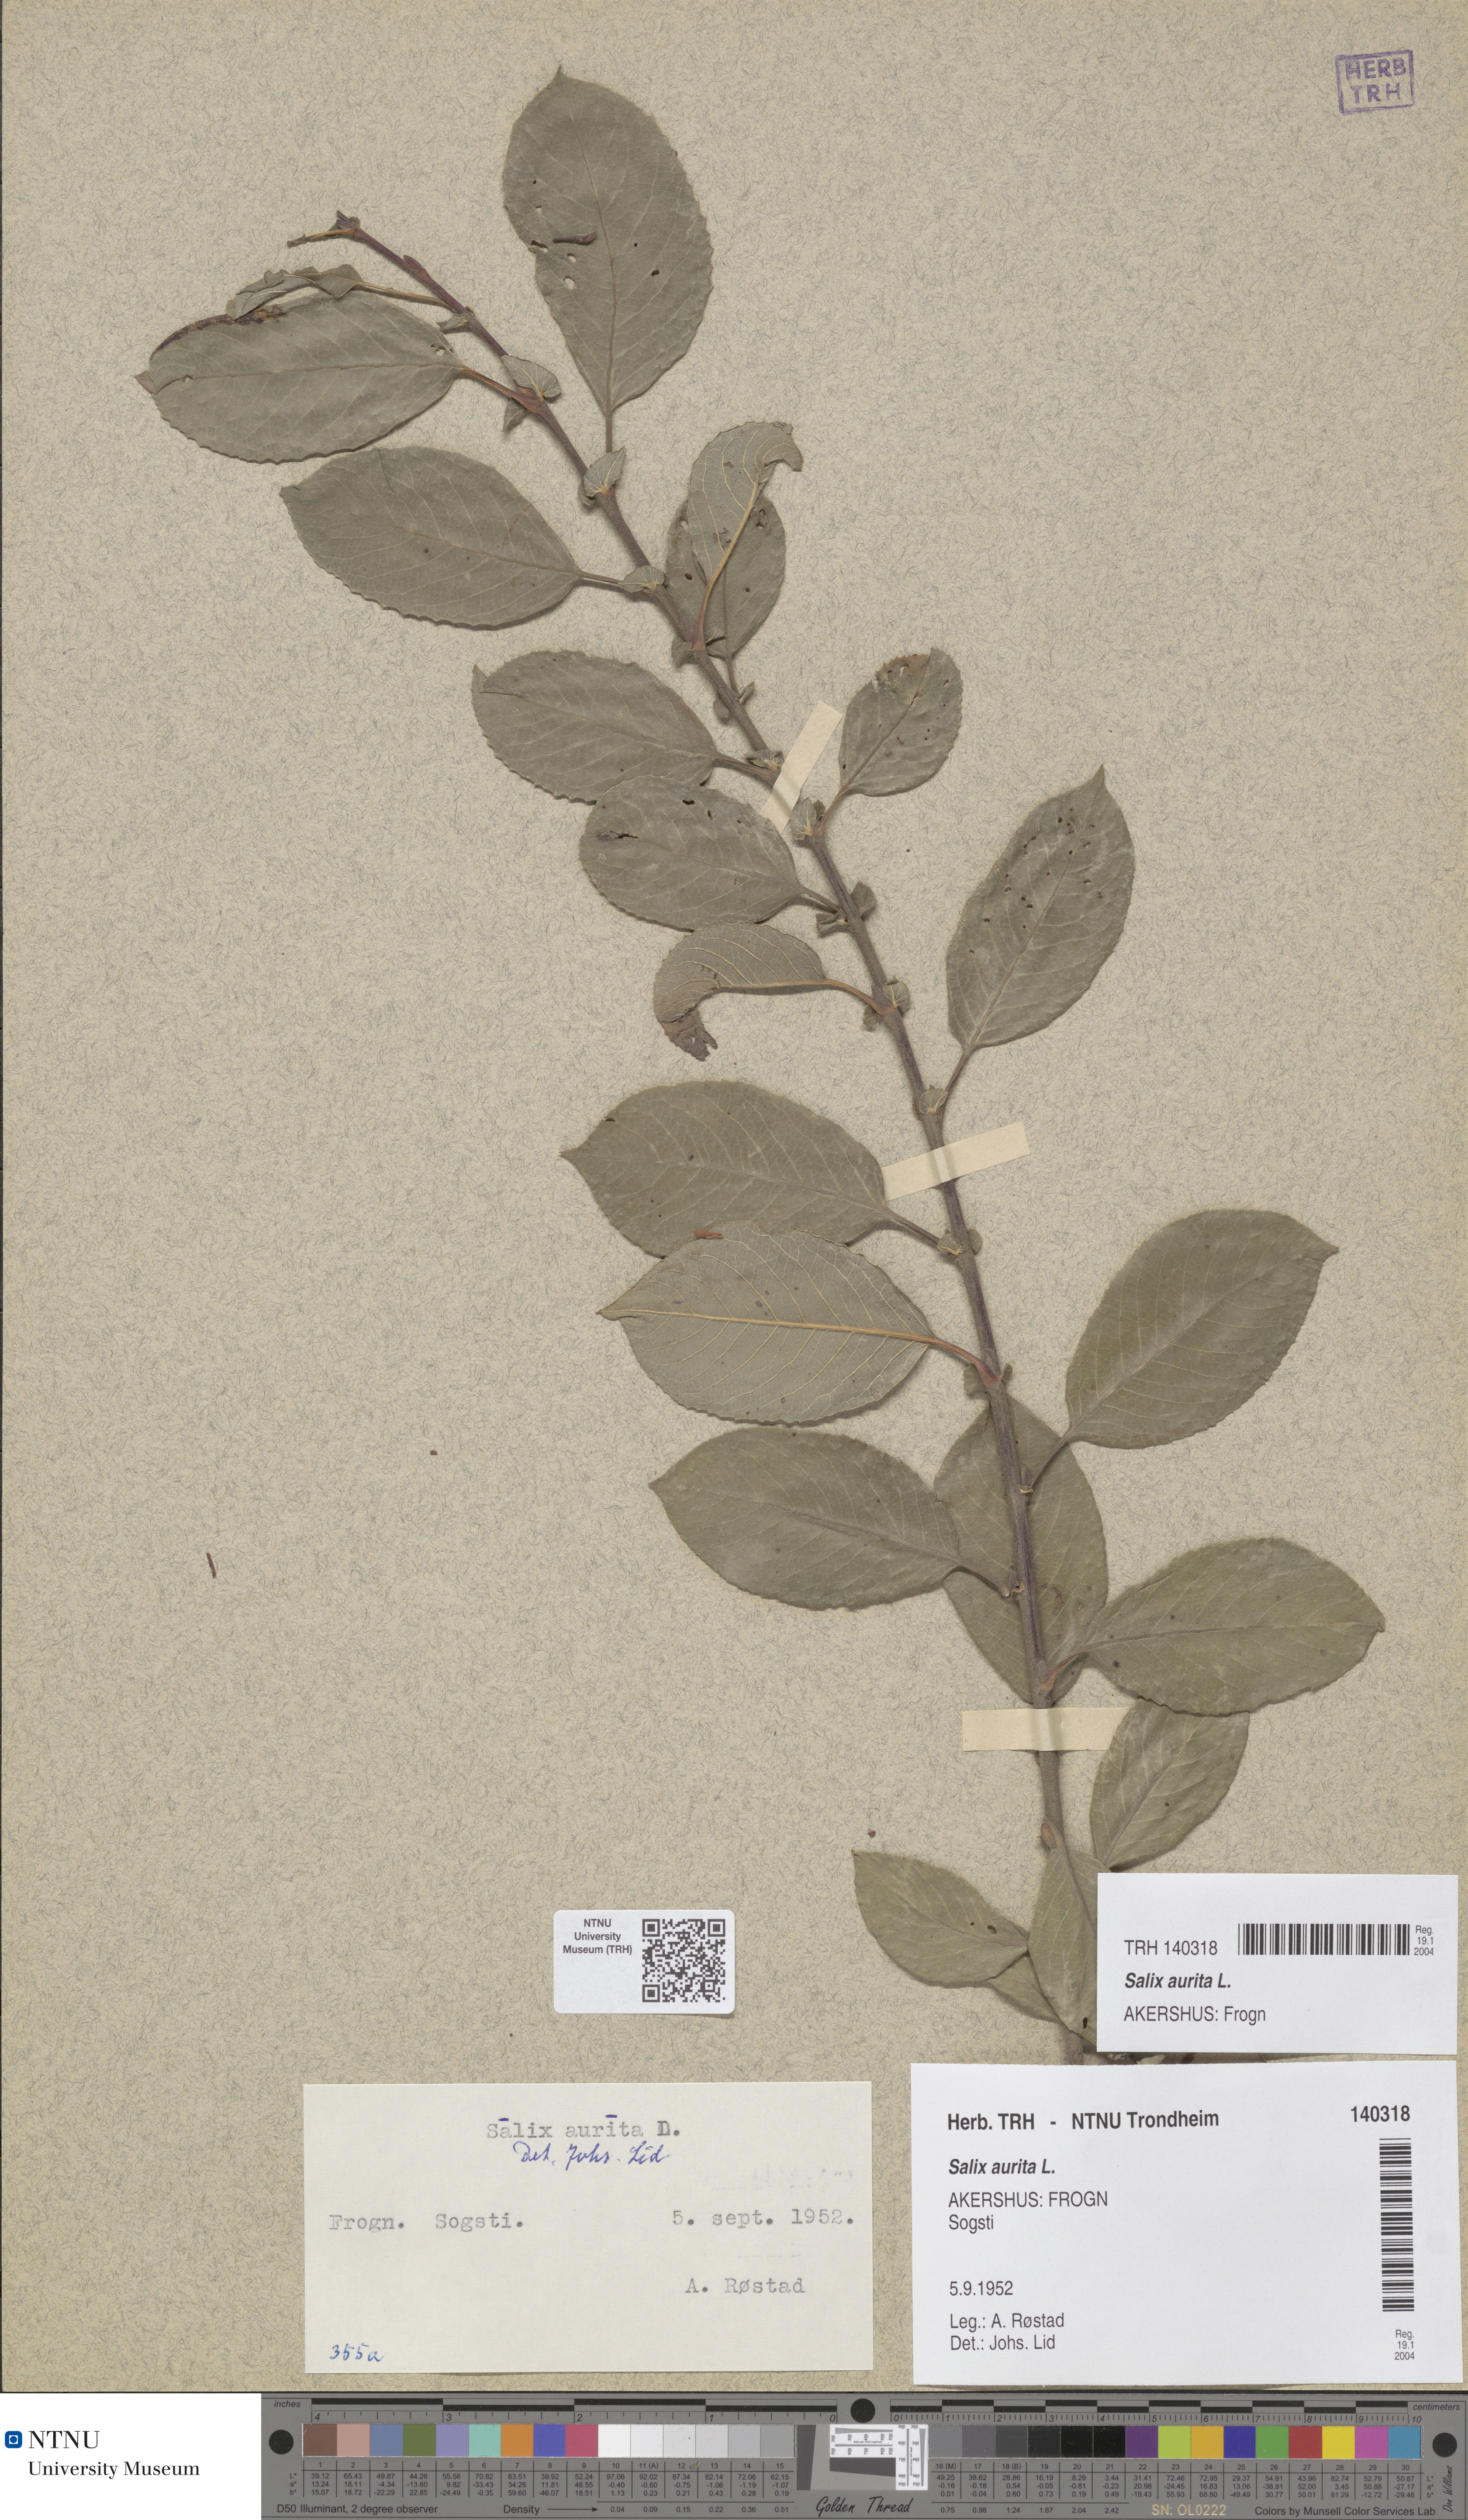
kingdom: Plantae
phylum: Tracheophyta
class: Magnoliopsida
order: Malpighiales
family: Salicaceae
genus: Salix
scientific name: Salix aurita
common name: Eared willow
